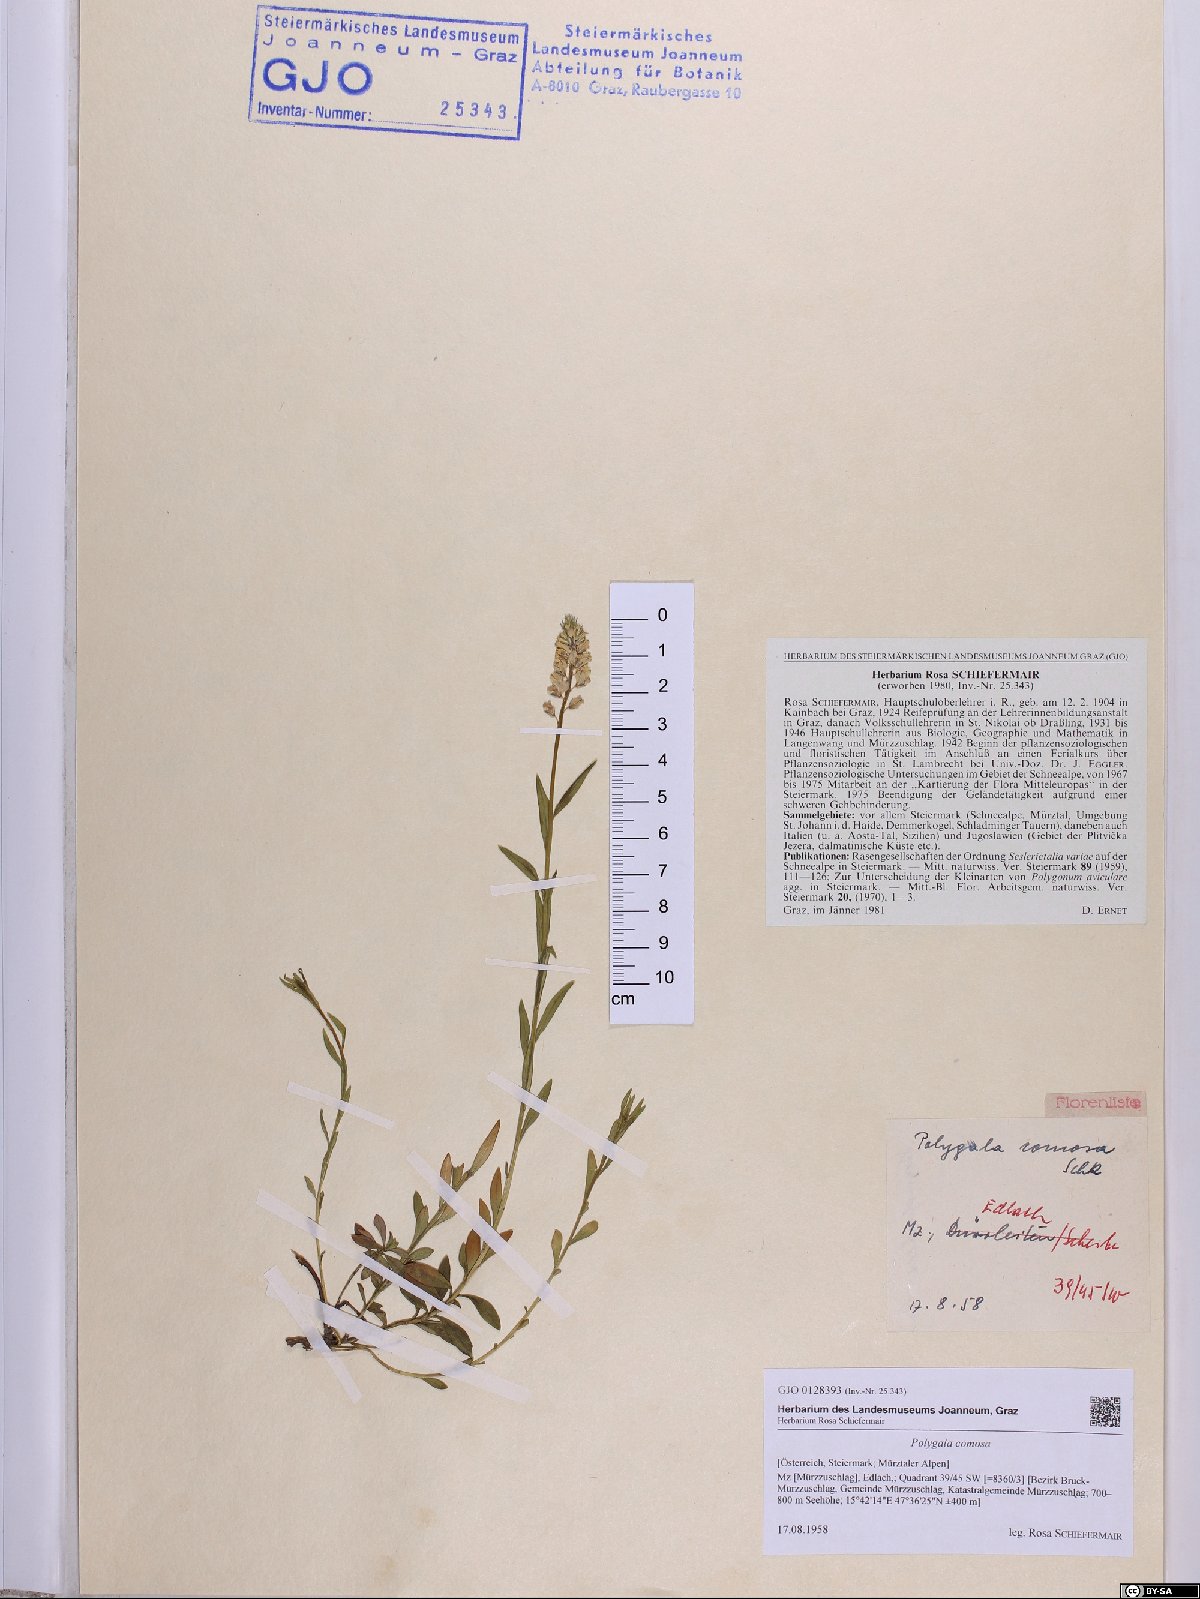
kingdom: Plantae
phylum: Tracheophyta
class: Magnoliopsida
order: Fabales
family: Polygalaceae
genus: Polygala
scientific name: Polygala comosa
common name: Tufted milkwort
